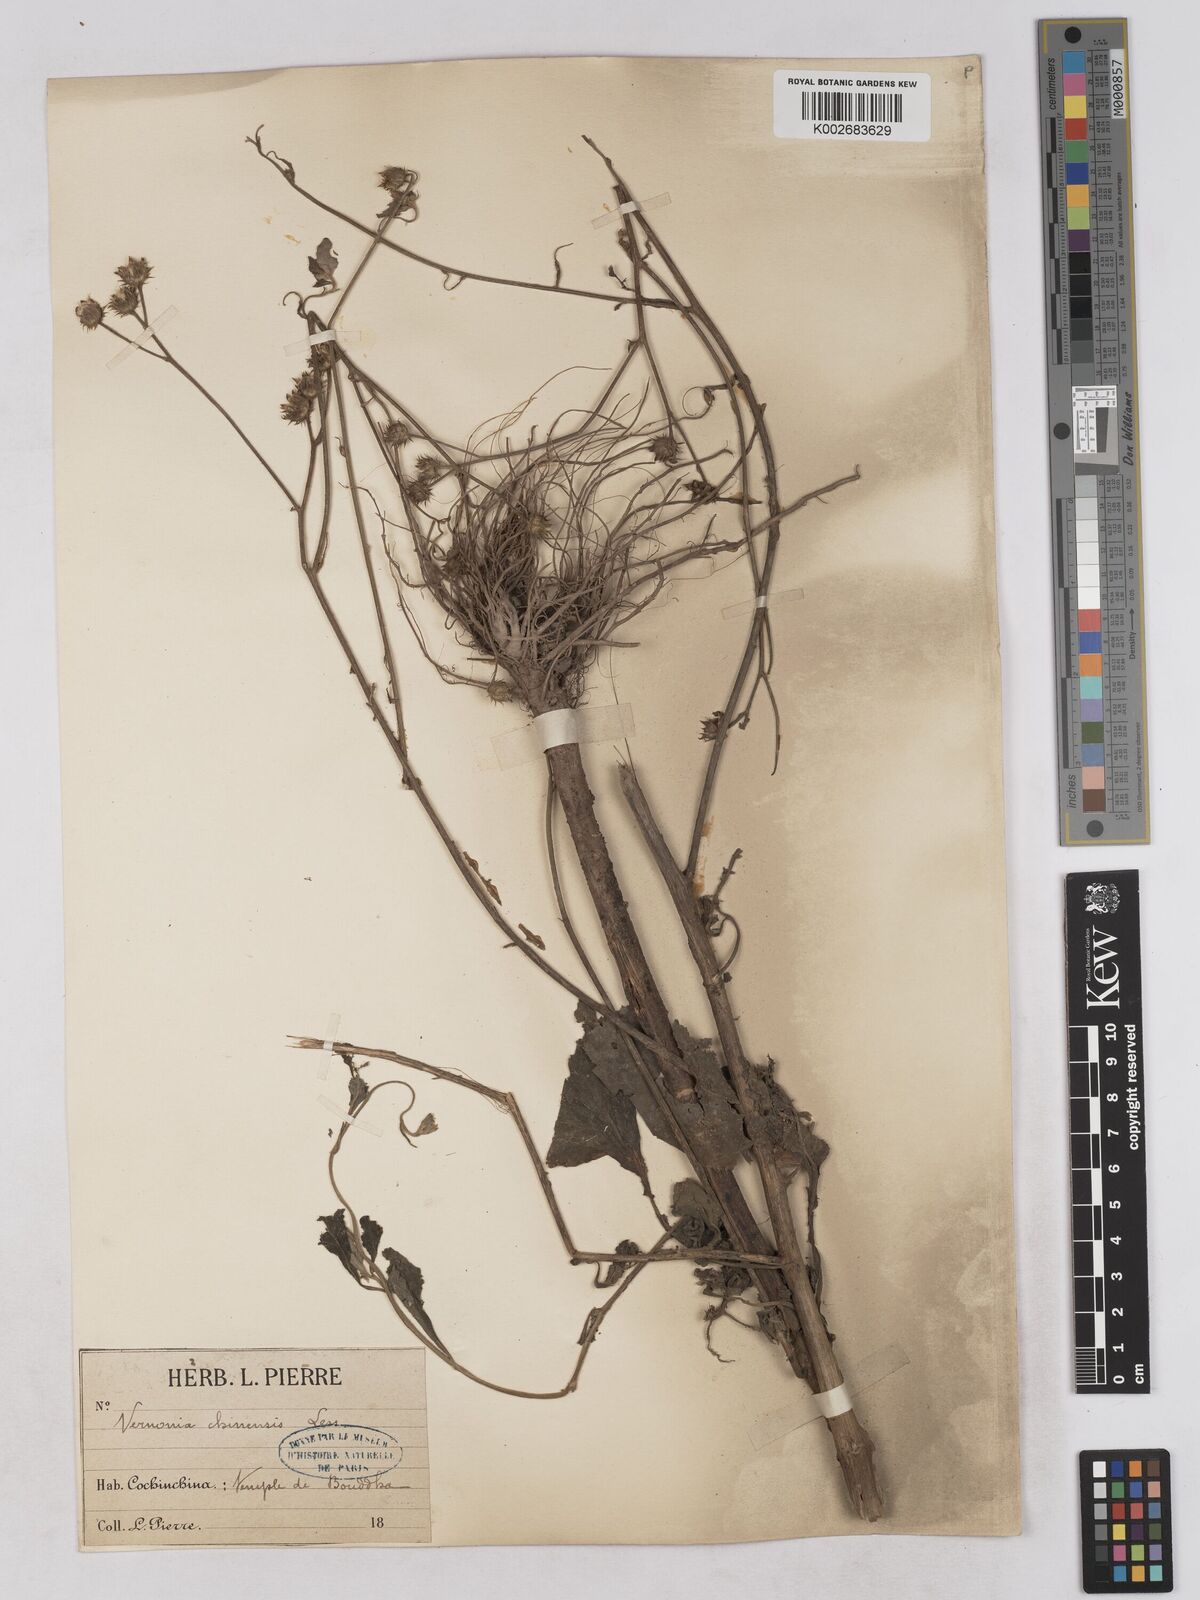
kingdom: Plantae
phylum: Tracheophyta
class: Magnoliopsida
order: Asterales
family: Asteraceae
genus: Cyanthillium
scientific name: Cyanthillium patulum
